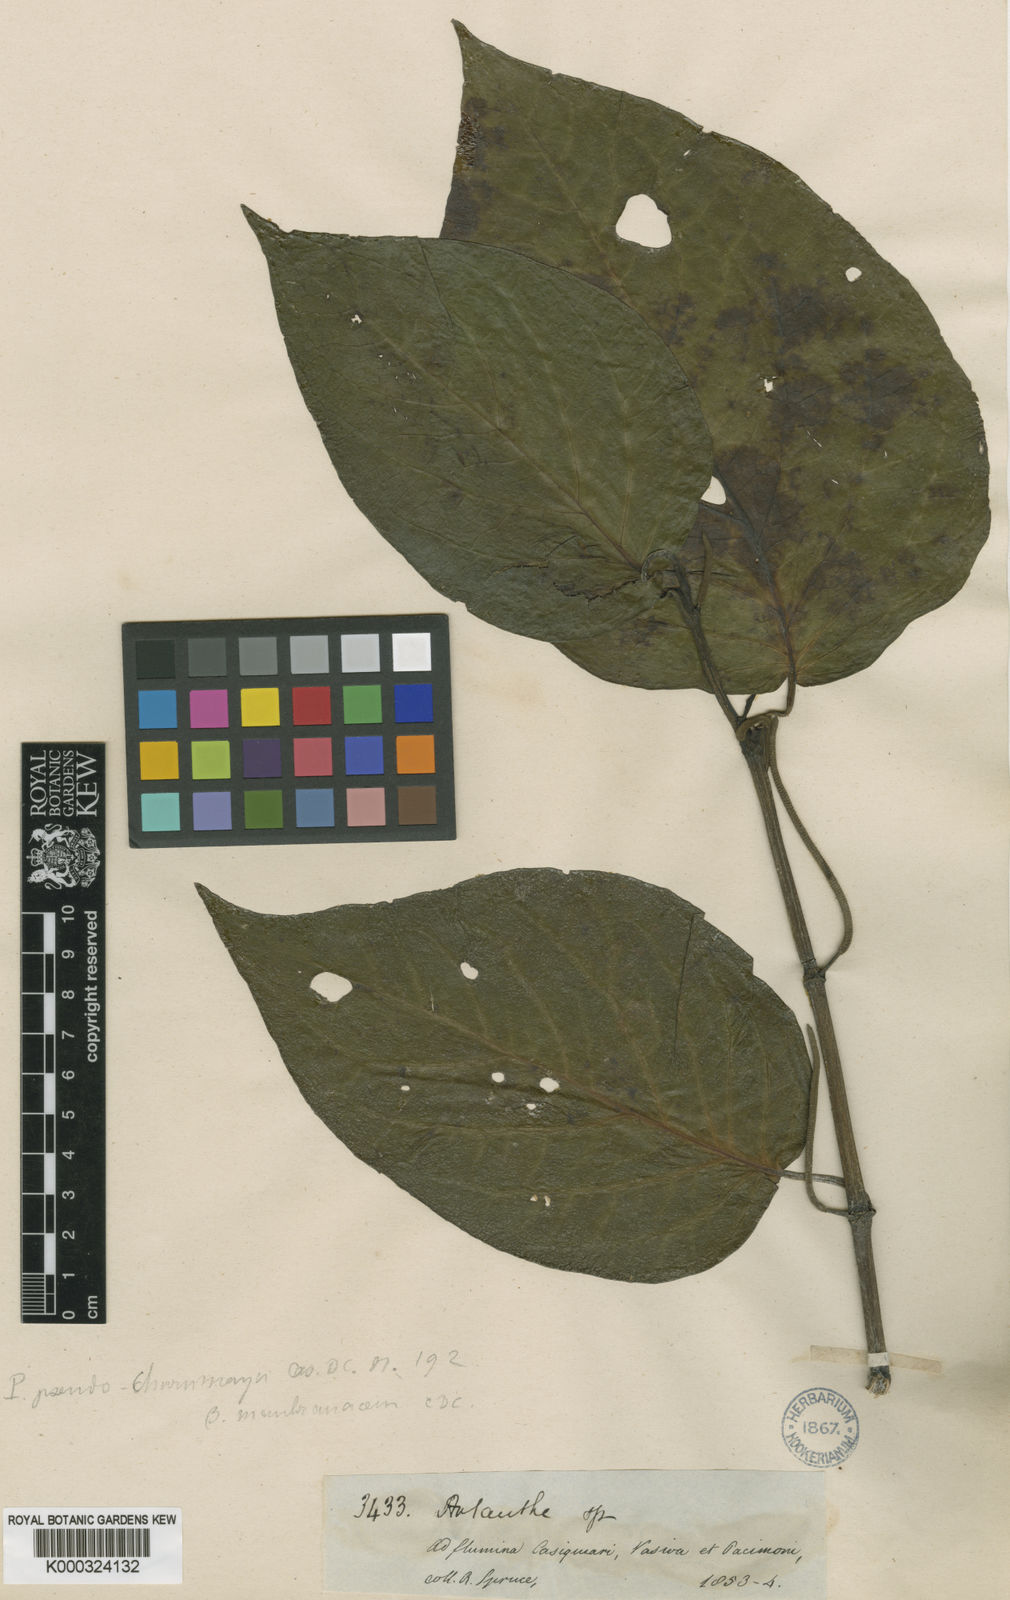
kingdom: Plantae
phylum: Tracheophyta
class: Magnoliopsida
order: Piperales
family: Piperaceae
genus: Piper
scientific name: Piper
